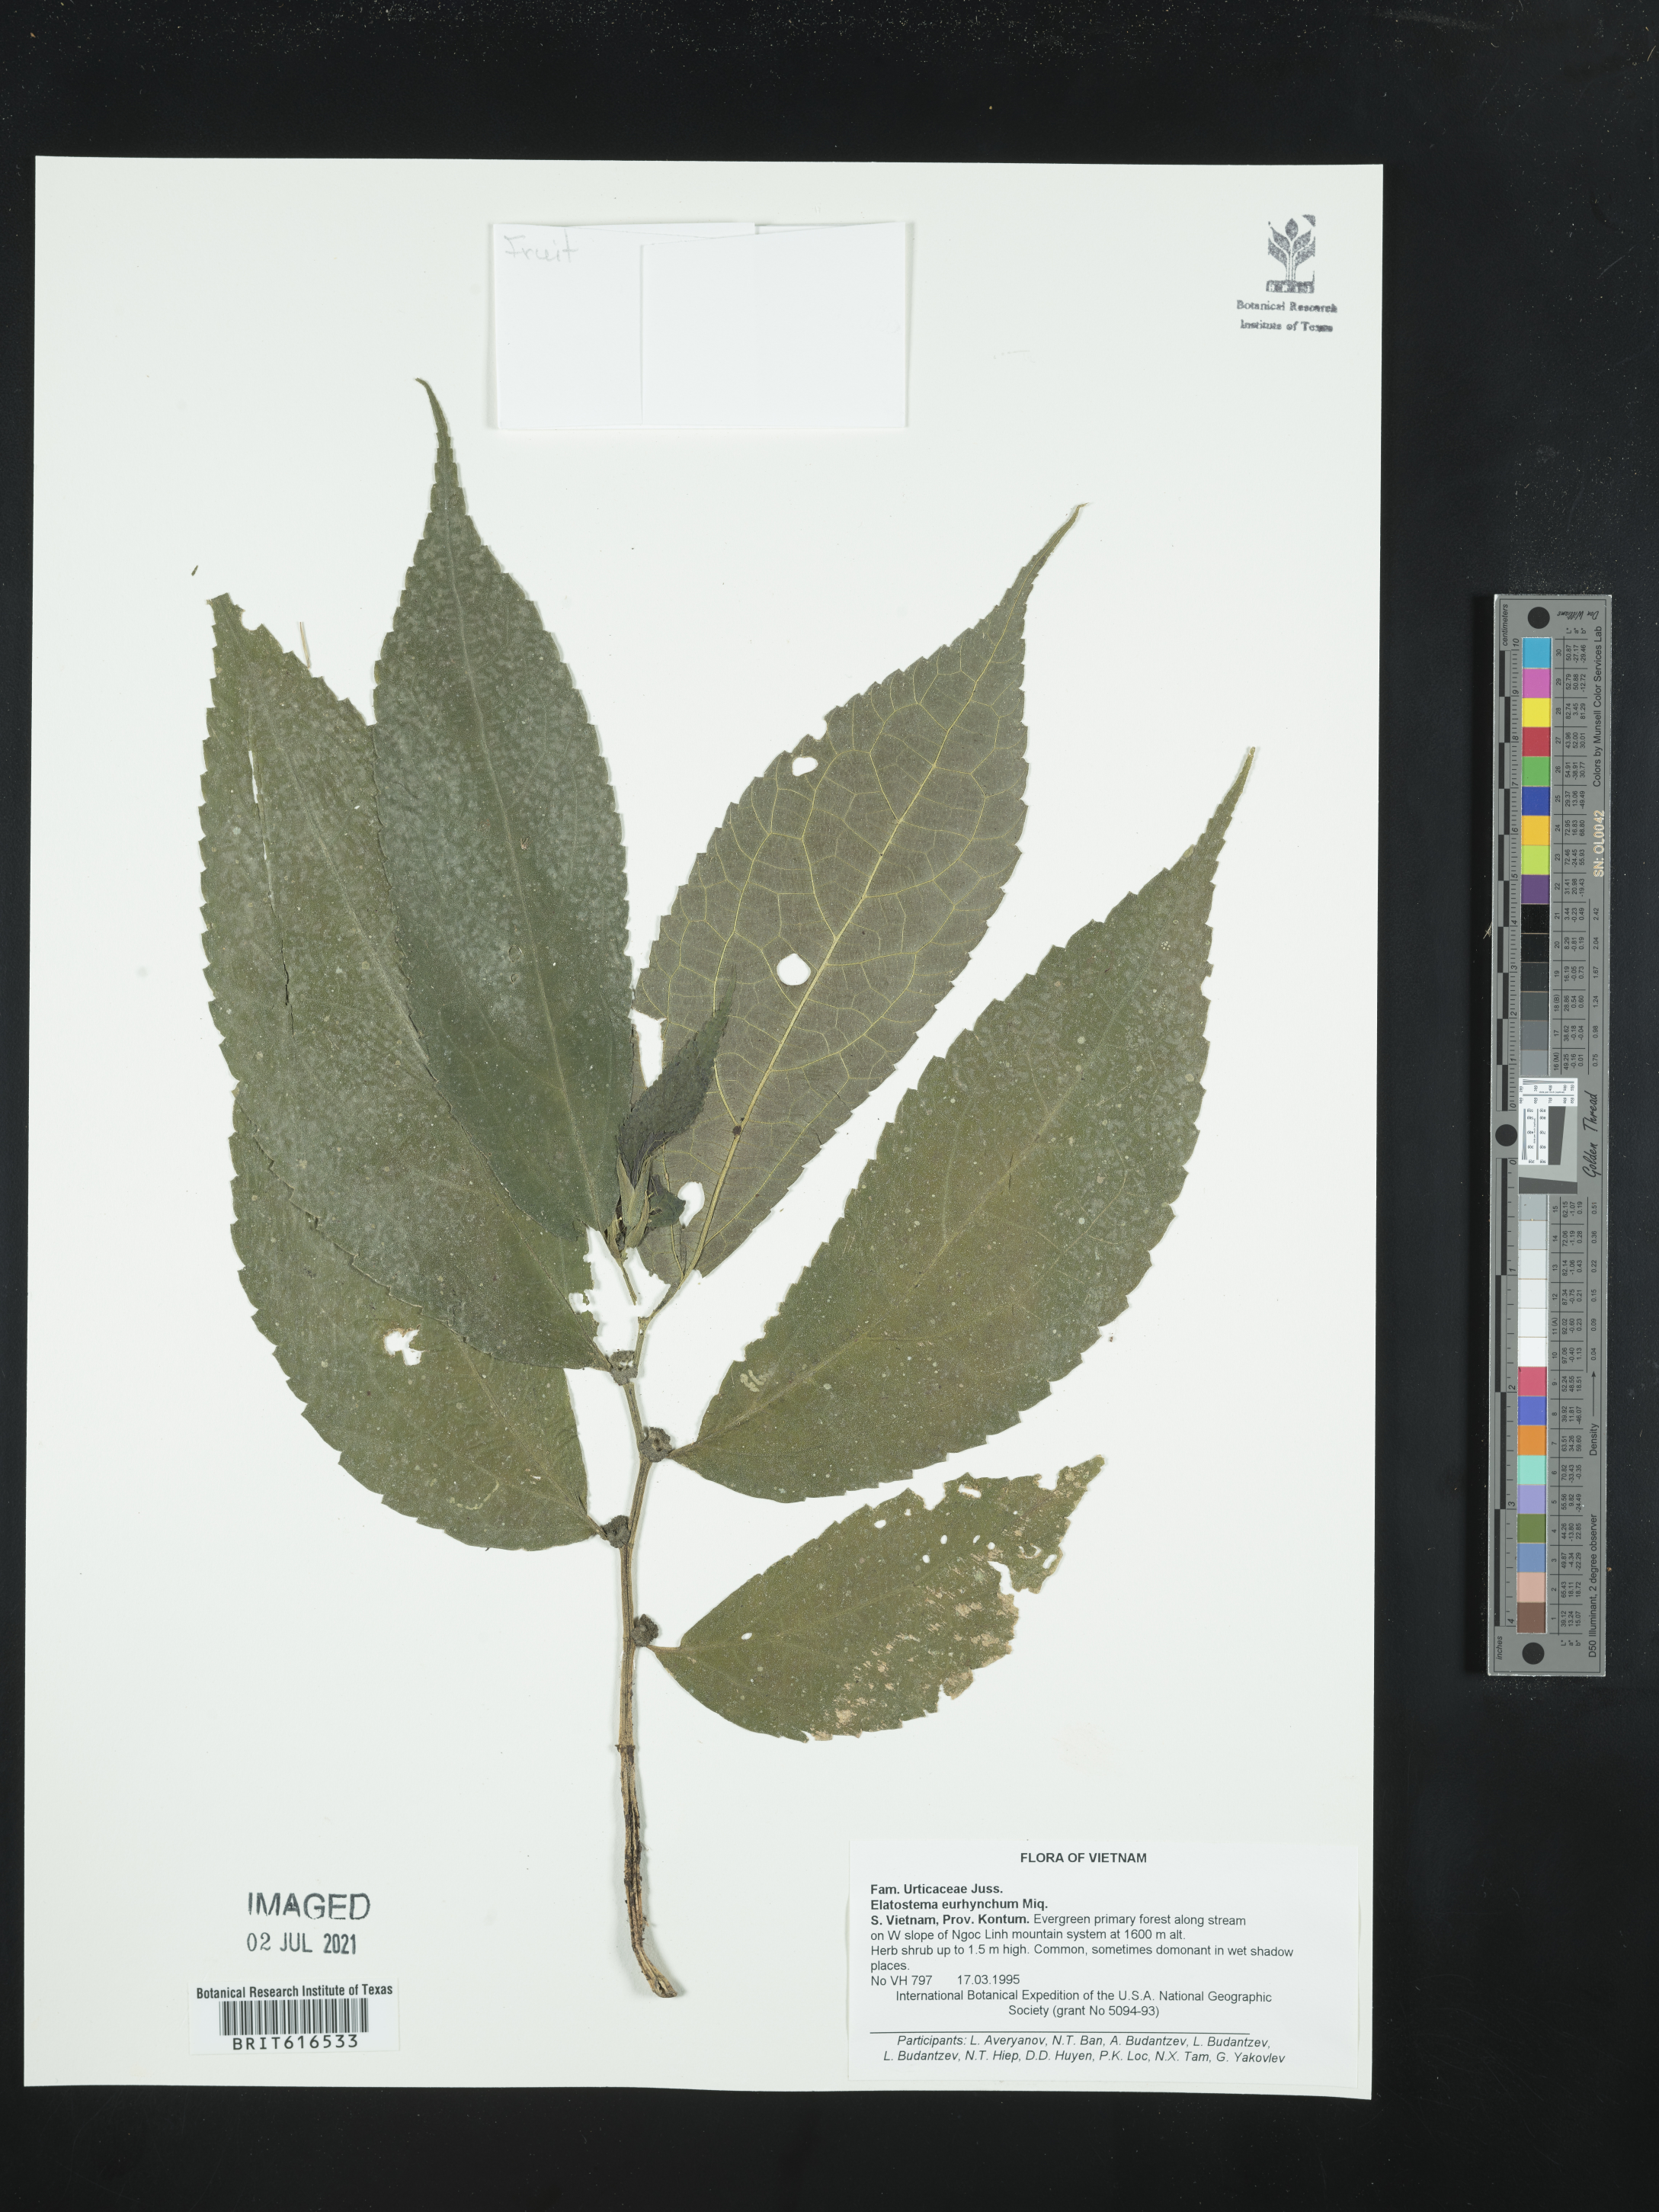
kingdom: Plantae
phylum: Tracheophyta
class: Magnoliopsida
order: Rosales
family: Urticaceae
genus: Elatostema
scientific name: Elatostema eurhynchum
